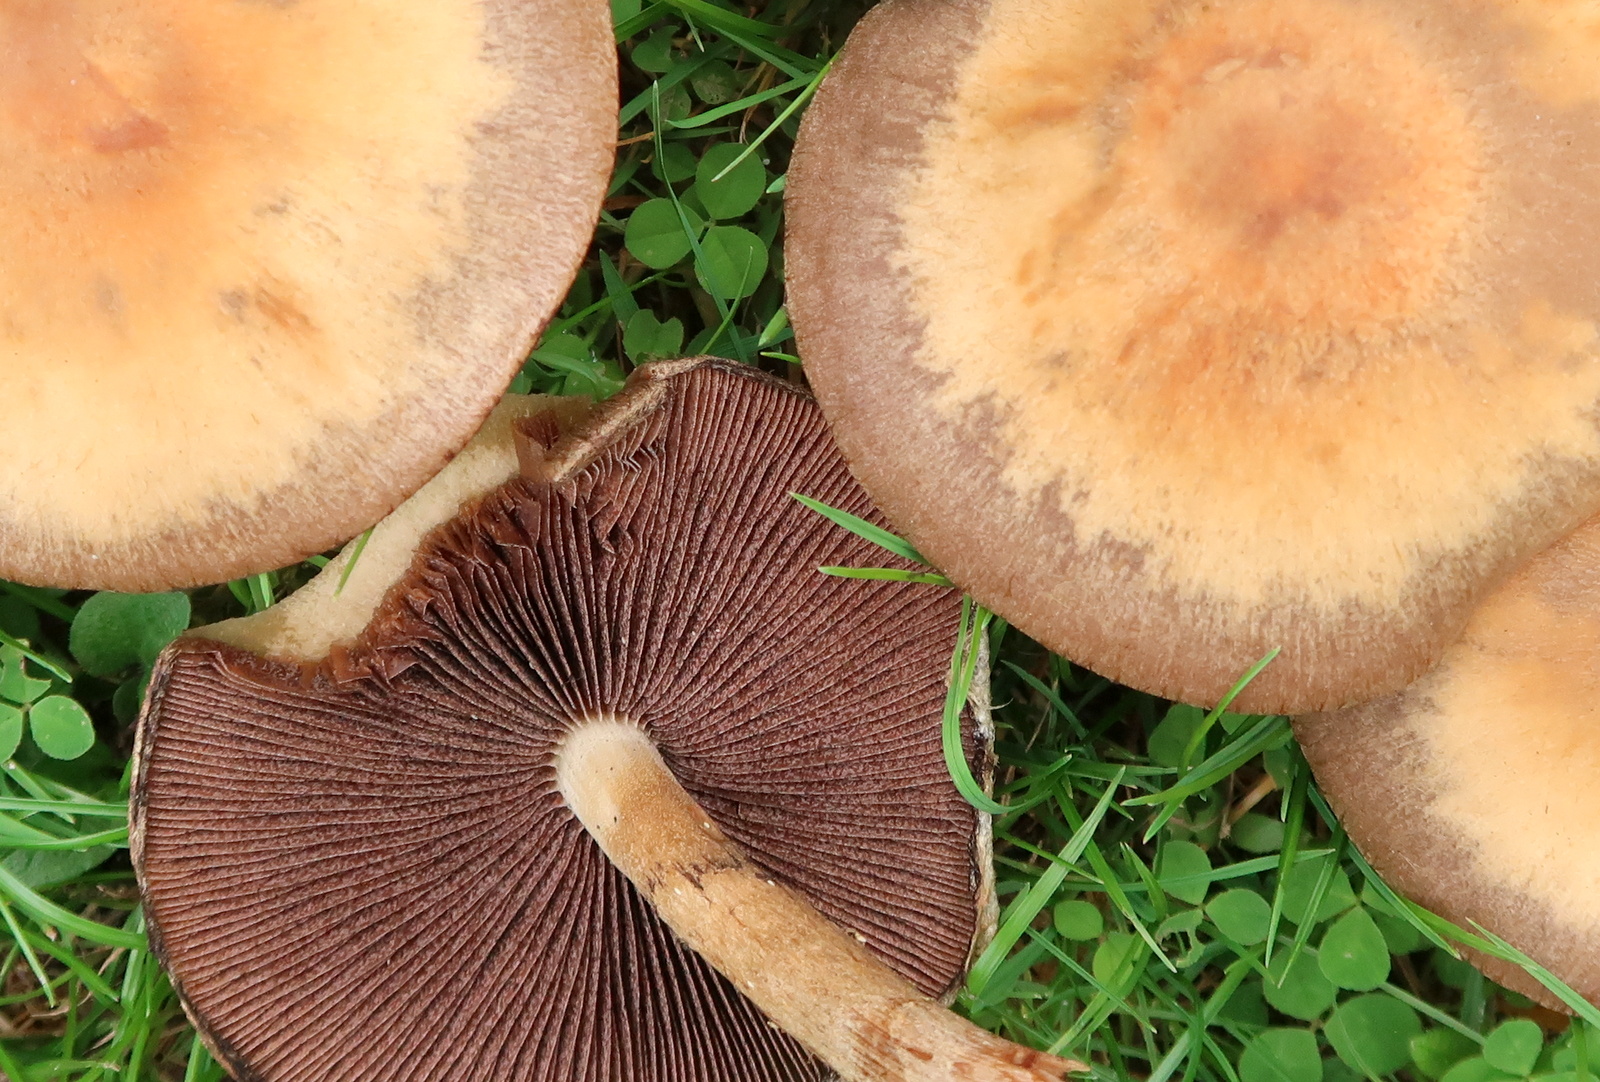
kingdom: Fungi
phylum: Basidiomycota
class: Agaricomycetes
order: Agaricales
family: Psathyrellaceae
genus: Lacrymaria
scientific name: Lacrymaria lacrymabunda
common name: grædende mørkhat
